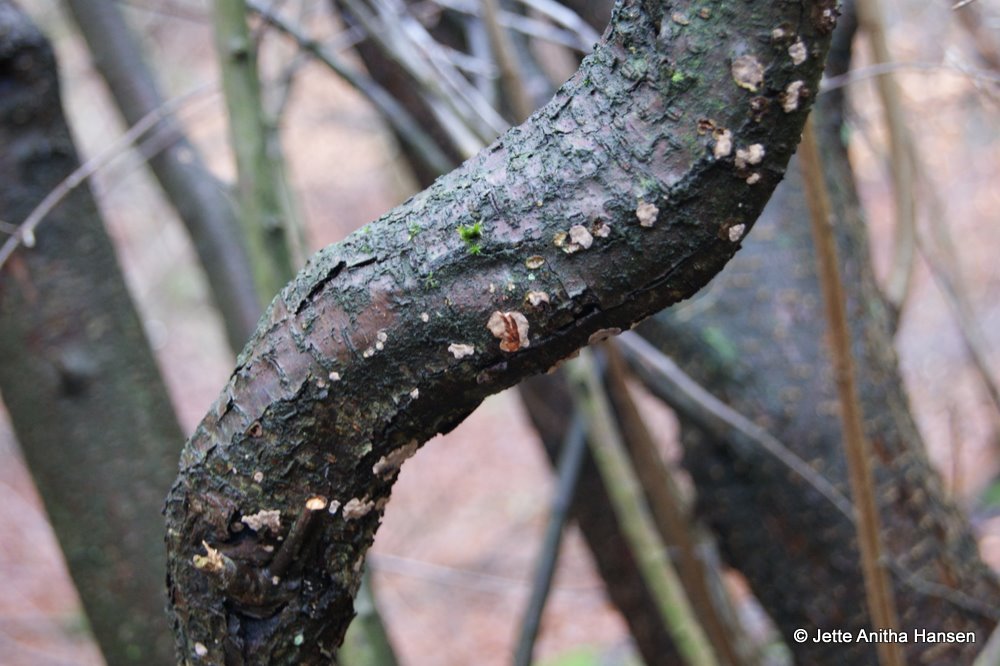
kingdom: Fungi
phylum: Basidiomycota
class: Agaricomycetes
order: Russulales
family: Stereaceae
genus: Stereum
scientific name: Stereum rugosum
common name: rynket lædersvamp
